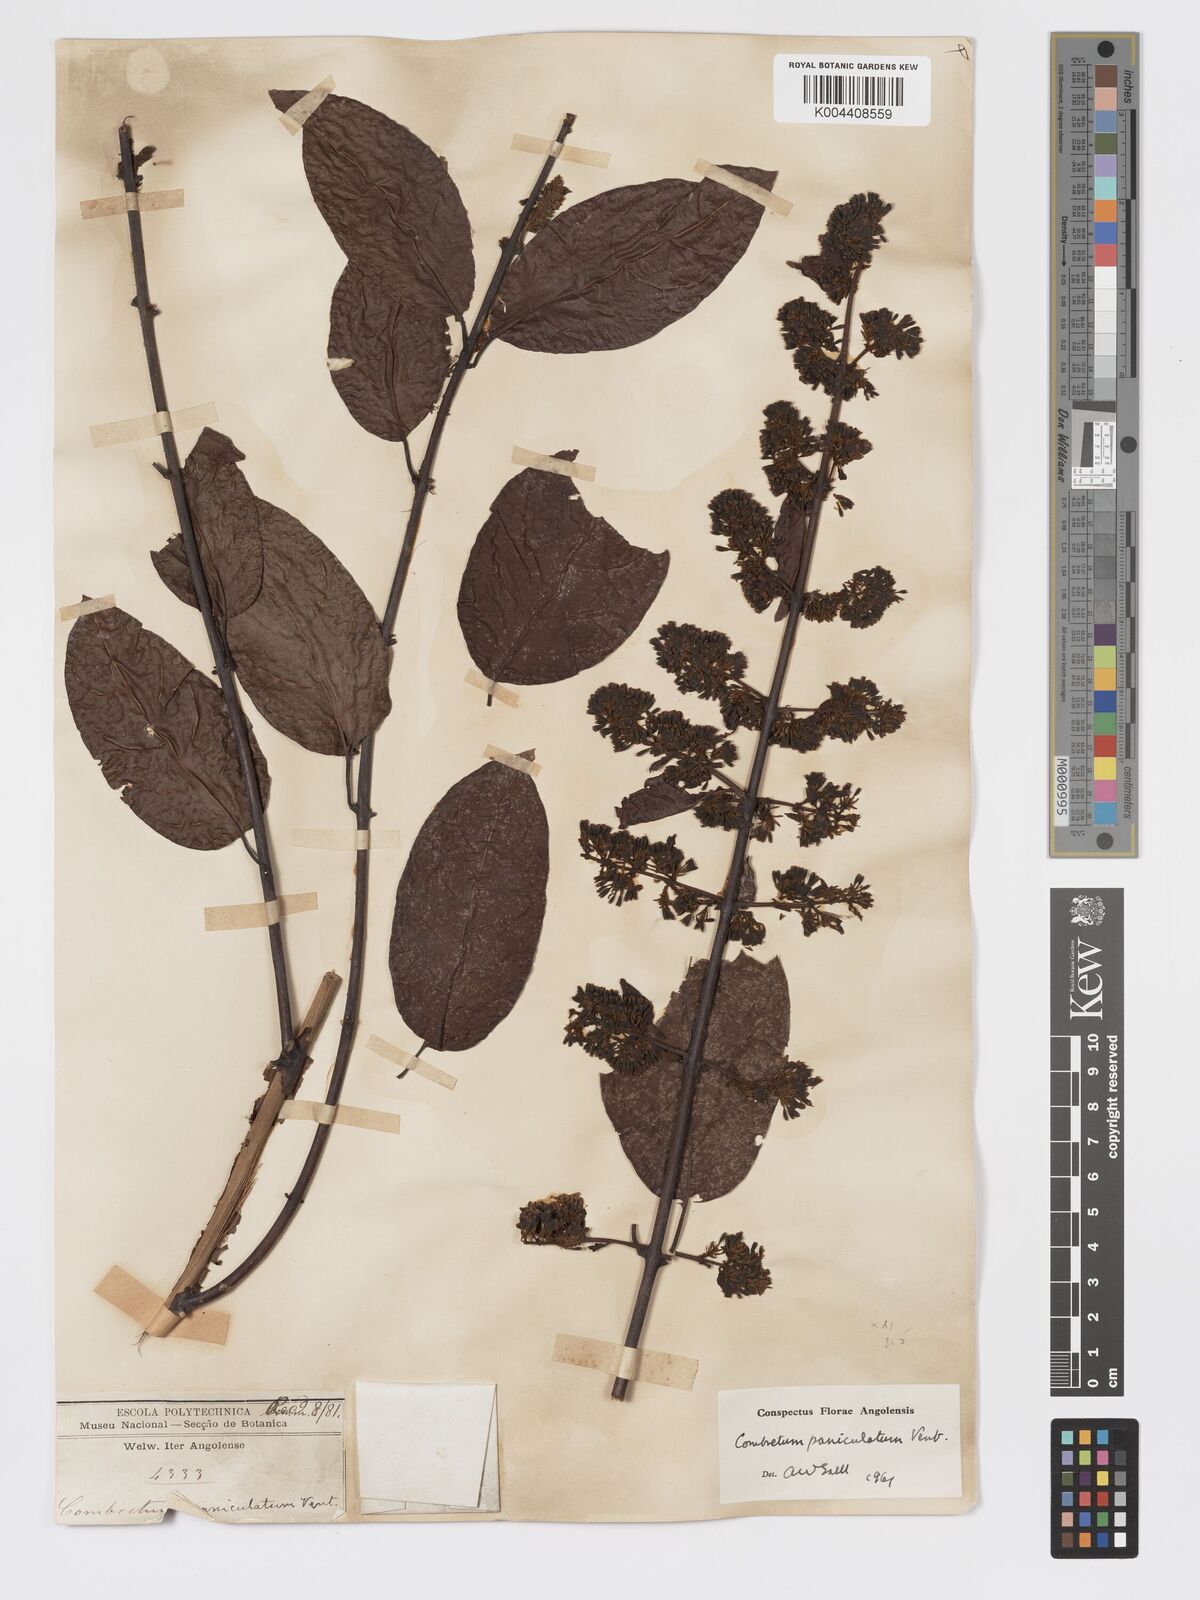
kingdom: Plantae
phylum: Tracheophyta
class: Magnoliopsida
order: Myrtales
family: Combretaceae
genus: Combretum
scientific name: Combretum paniculatum
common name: Fire vine
